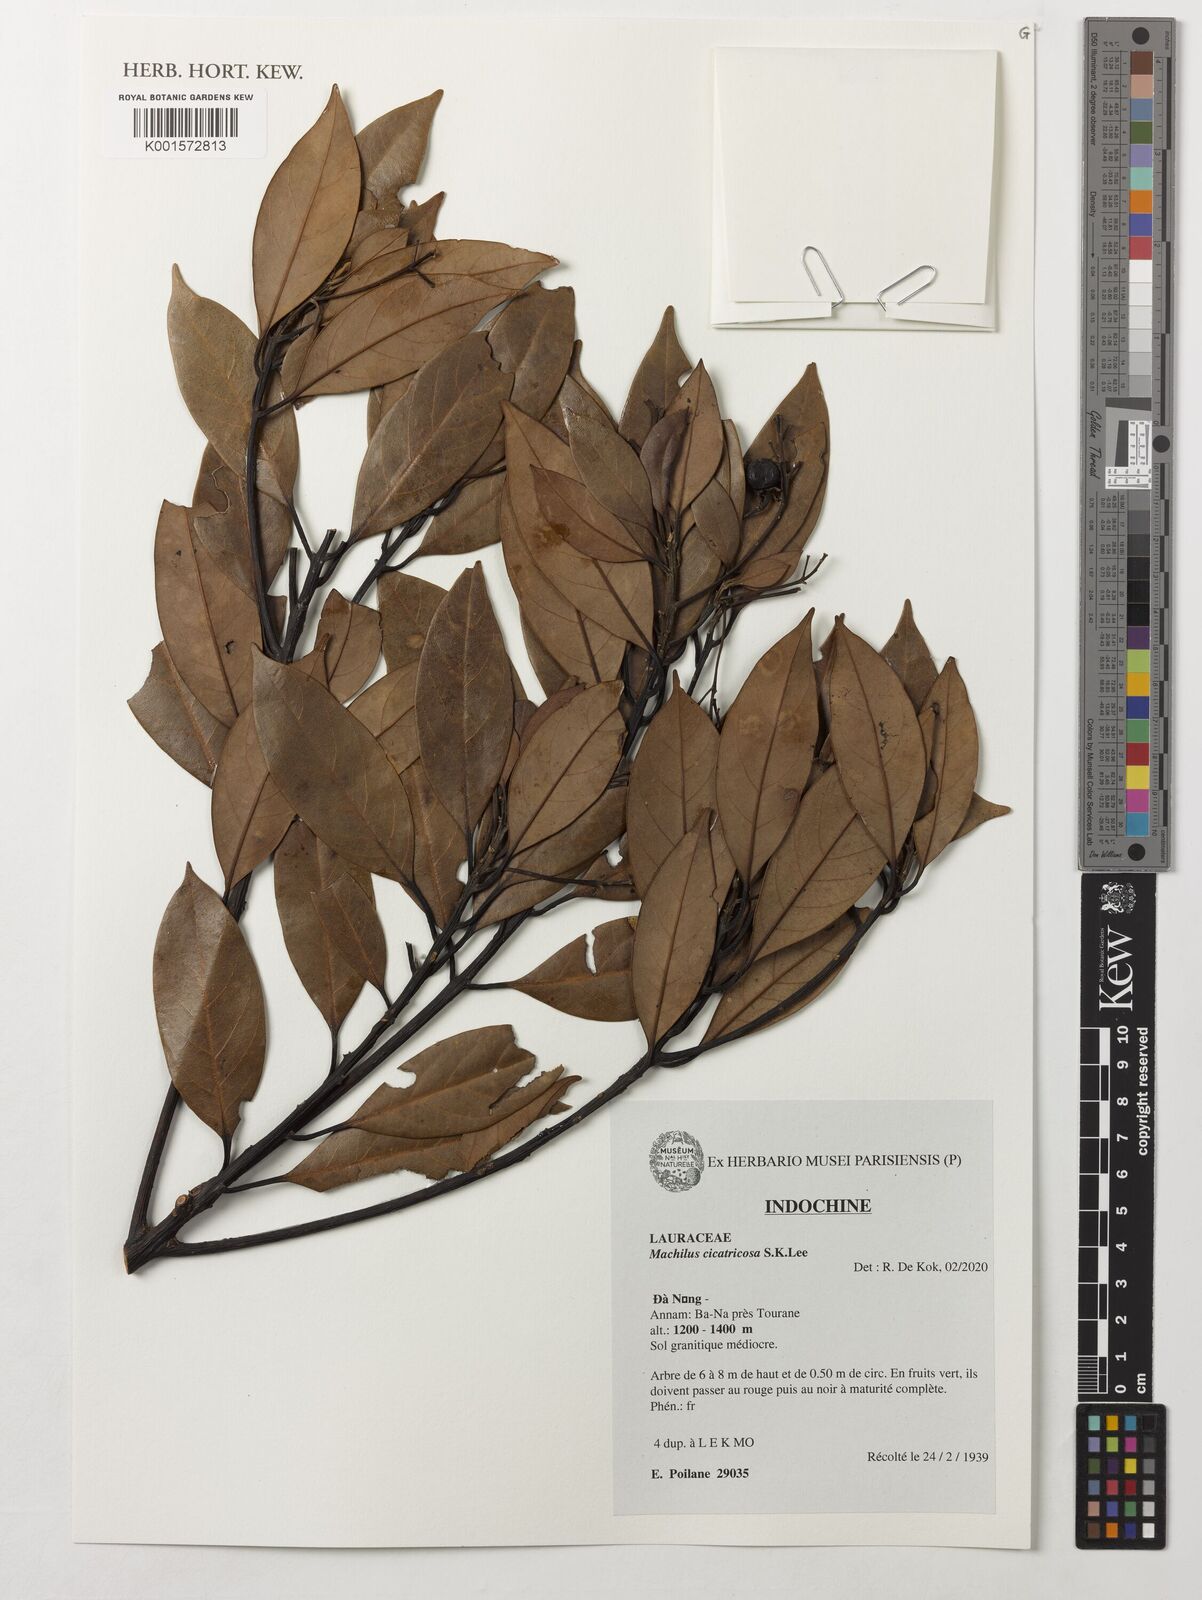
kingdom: Plantae
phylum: Tracheophyta
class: Magnoliopsida
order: Laurales
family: Lauraceae
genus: Machilus
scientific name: Machilus cicatricosa
